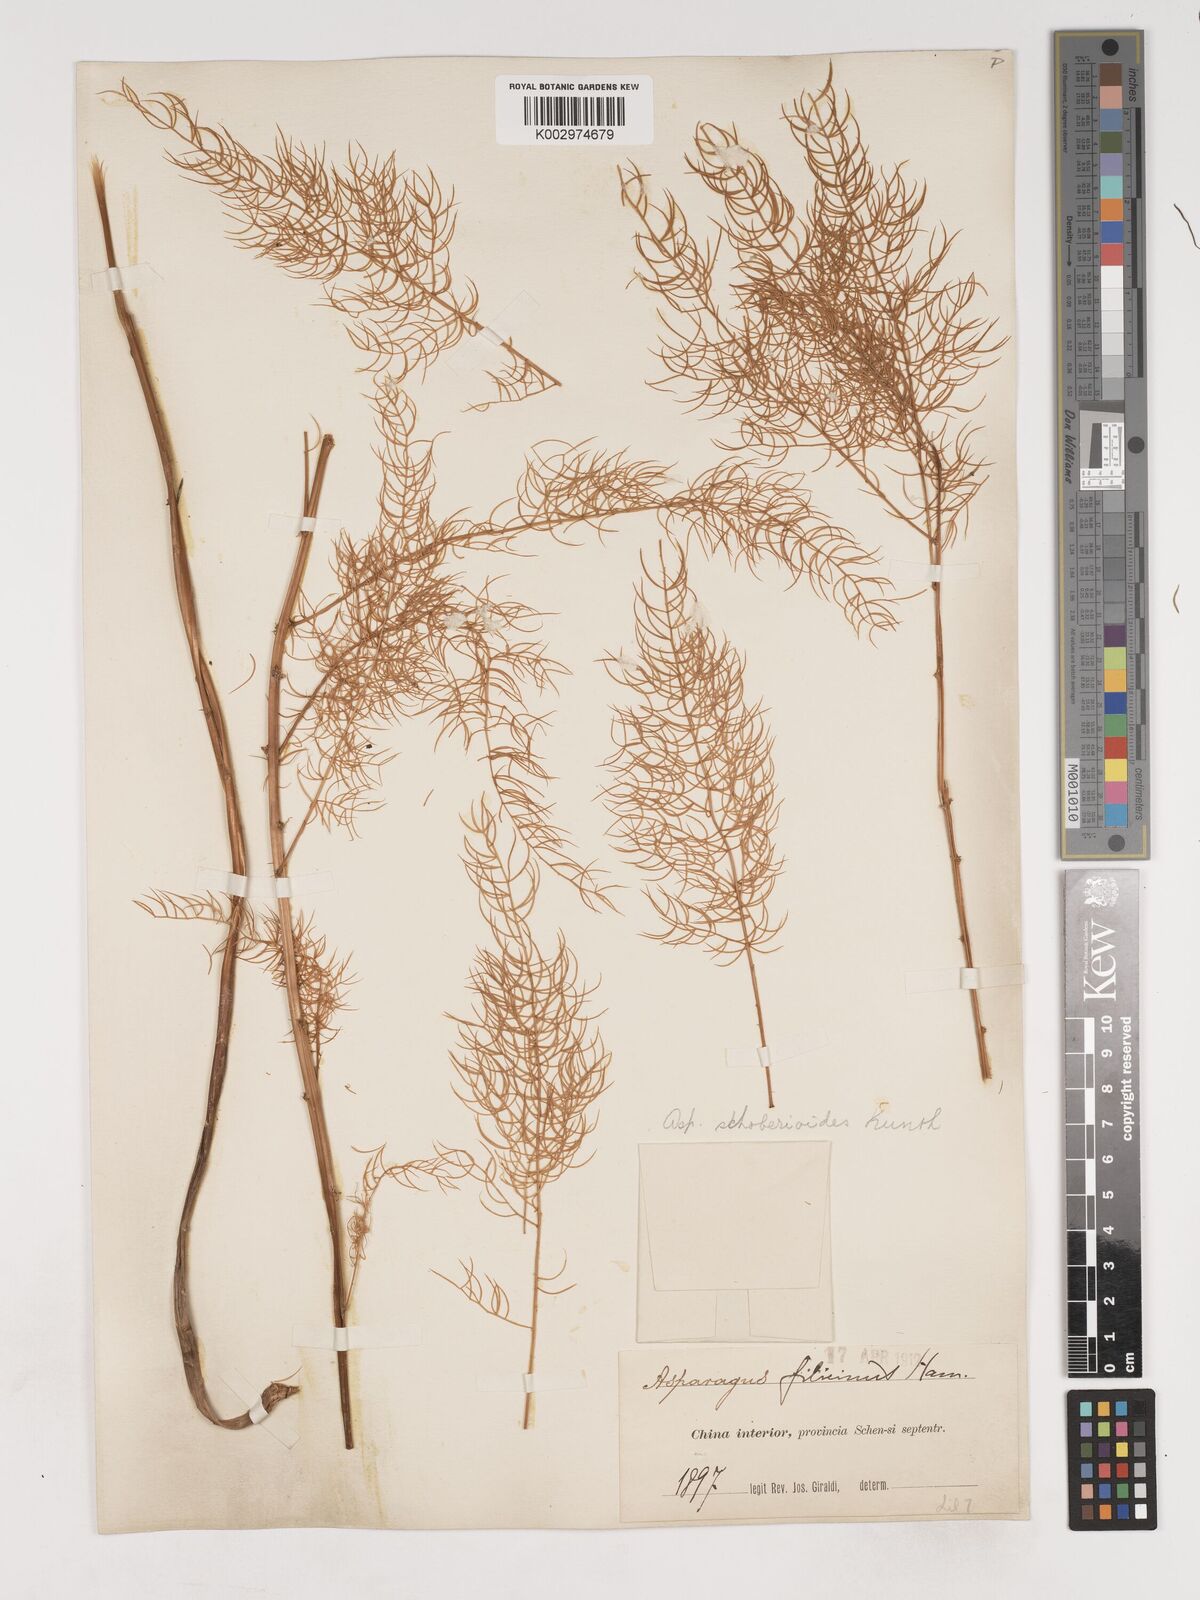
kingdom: Plantae
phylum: Tracheophyta
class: Liliopsida
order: Asparagales
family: Asparagaceae
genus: Asparagus
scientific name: Asparagus schoberioides
